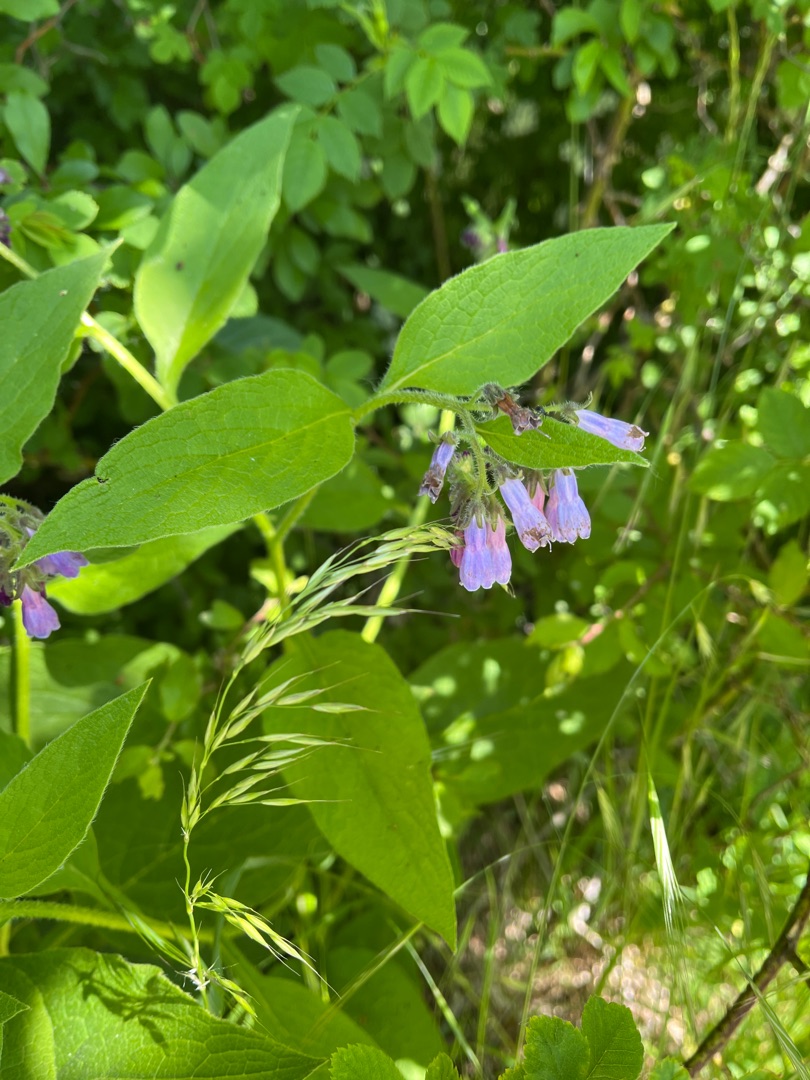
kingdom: Plantae
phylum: Tracheophyta
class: Magnoliopsida
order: Boraginales
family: Boraginaceae
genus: Symphytum
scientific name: Symphytum uplandicum
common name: Foder-kulsukker
